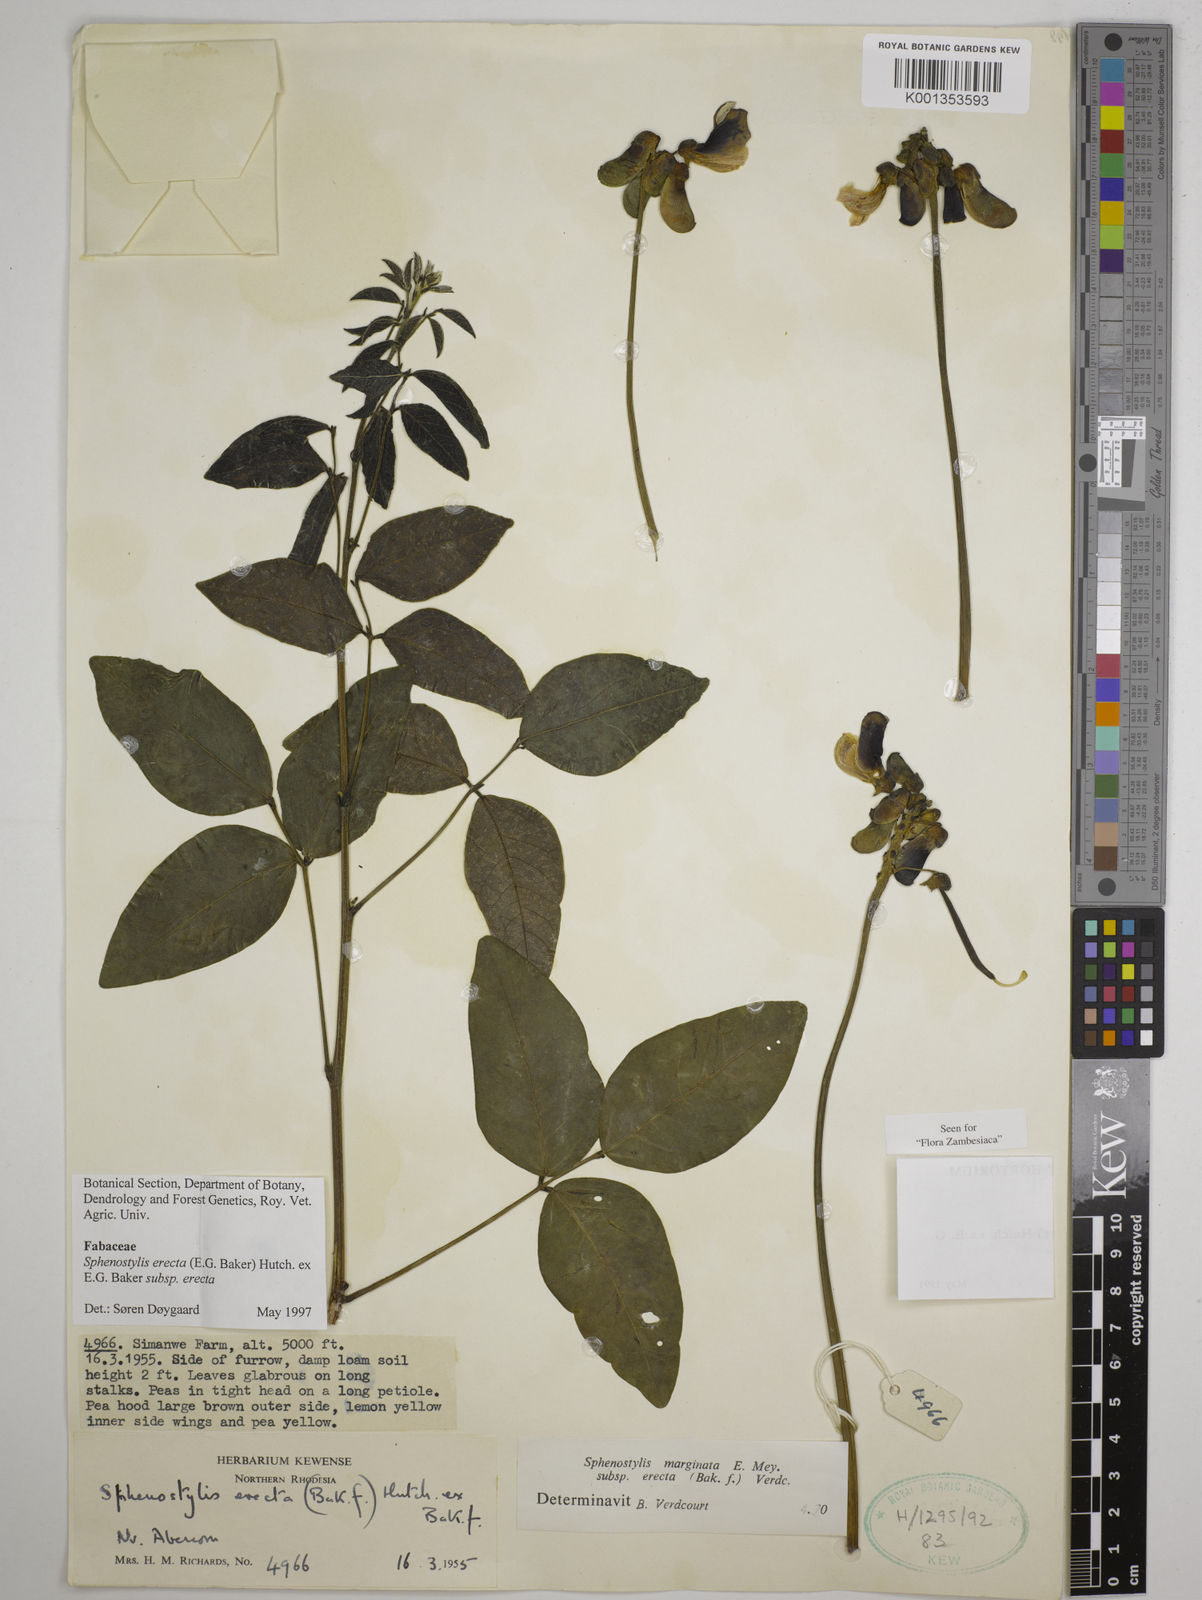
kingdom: Plantae
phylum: Tracheophyta
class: Magnoliopsida
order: Fabales
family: Fabaceae
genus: Sphenostylis
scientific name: Sphenostylis erecta
